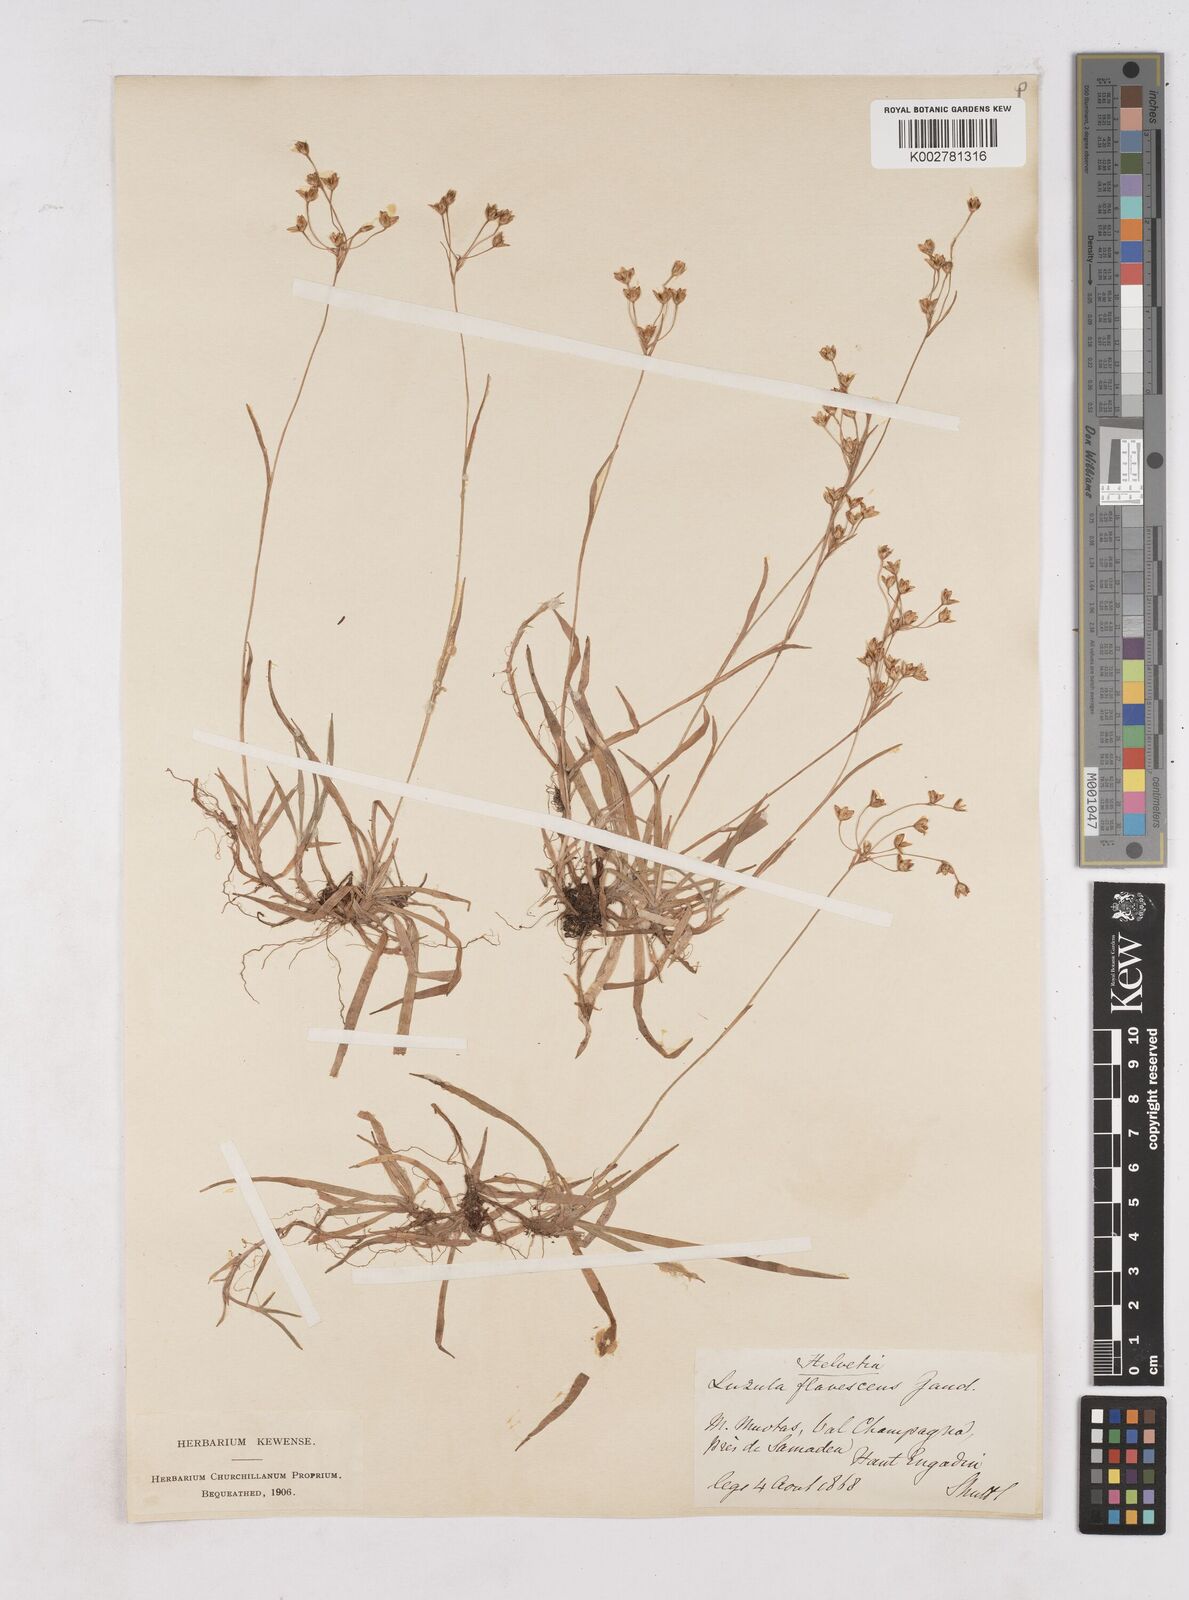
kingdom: Plantae
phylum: Tracheophyta
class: Liliopsida
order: Poales
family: Juncaceae
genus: Luzula
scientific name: Luzula luzulina
